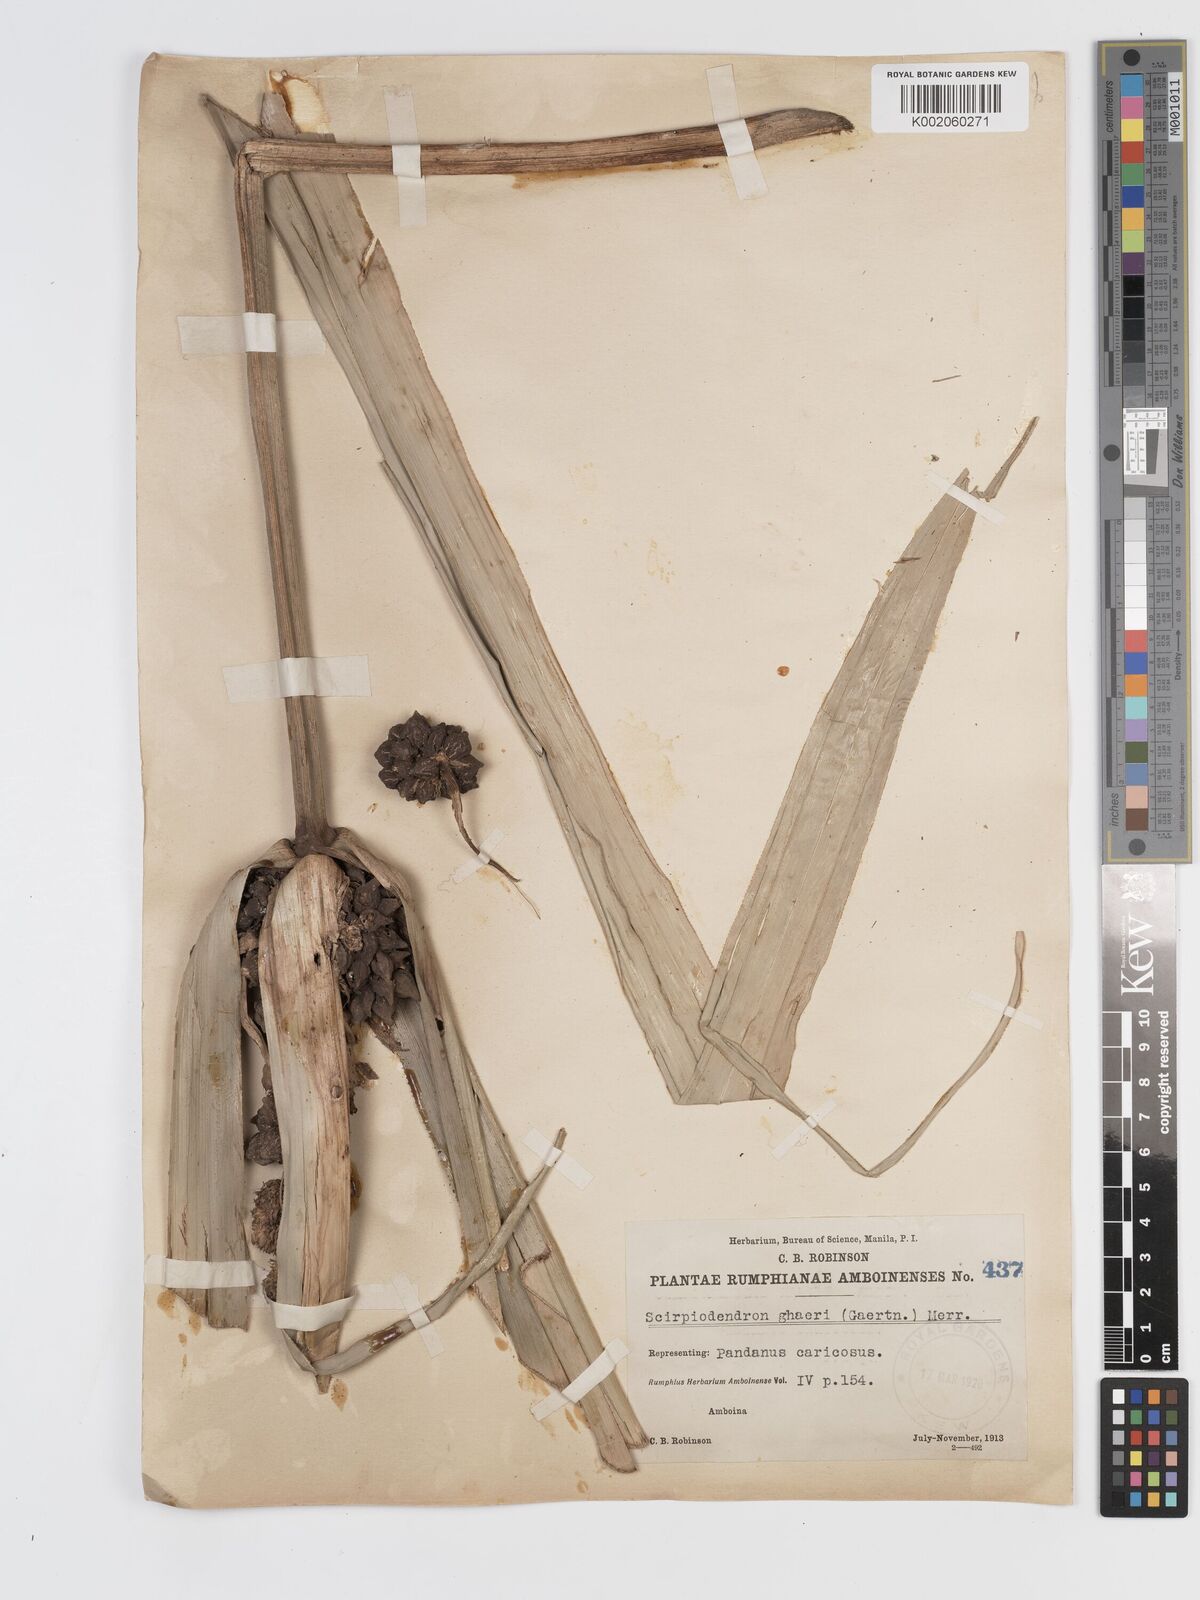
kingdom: Plantae
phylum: Tracheophyta
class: Liliopsida
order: Poales
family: Cyperaceae
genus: Scirpodendron
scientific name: Scirpodendron ghaeri
